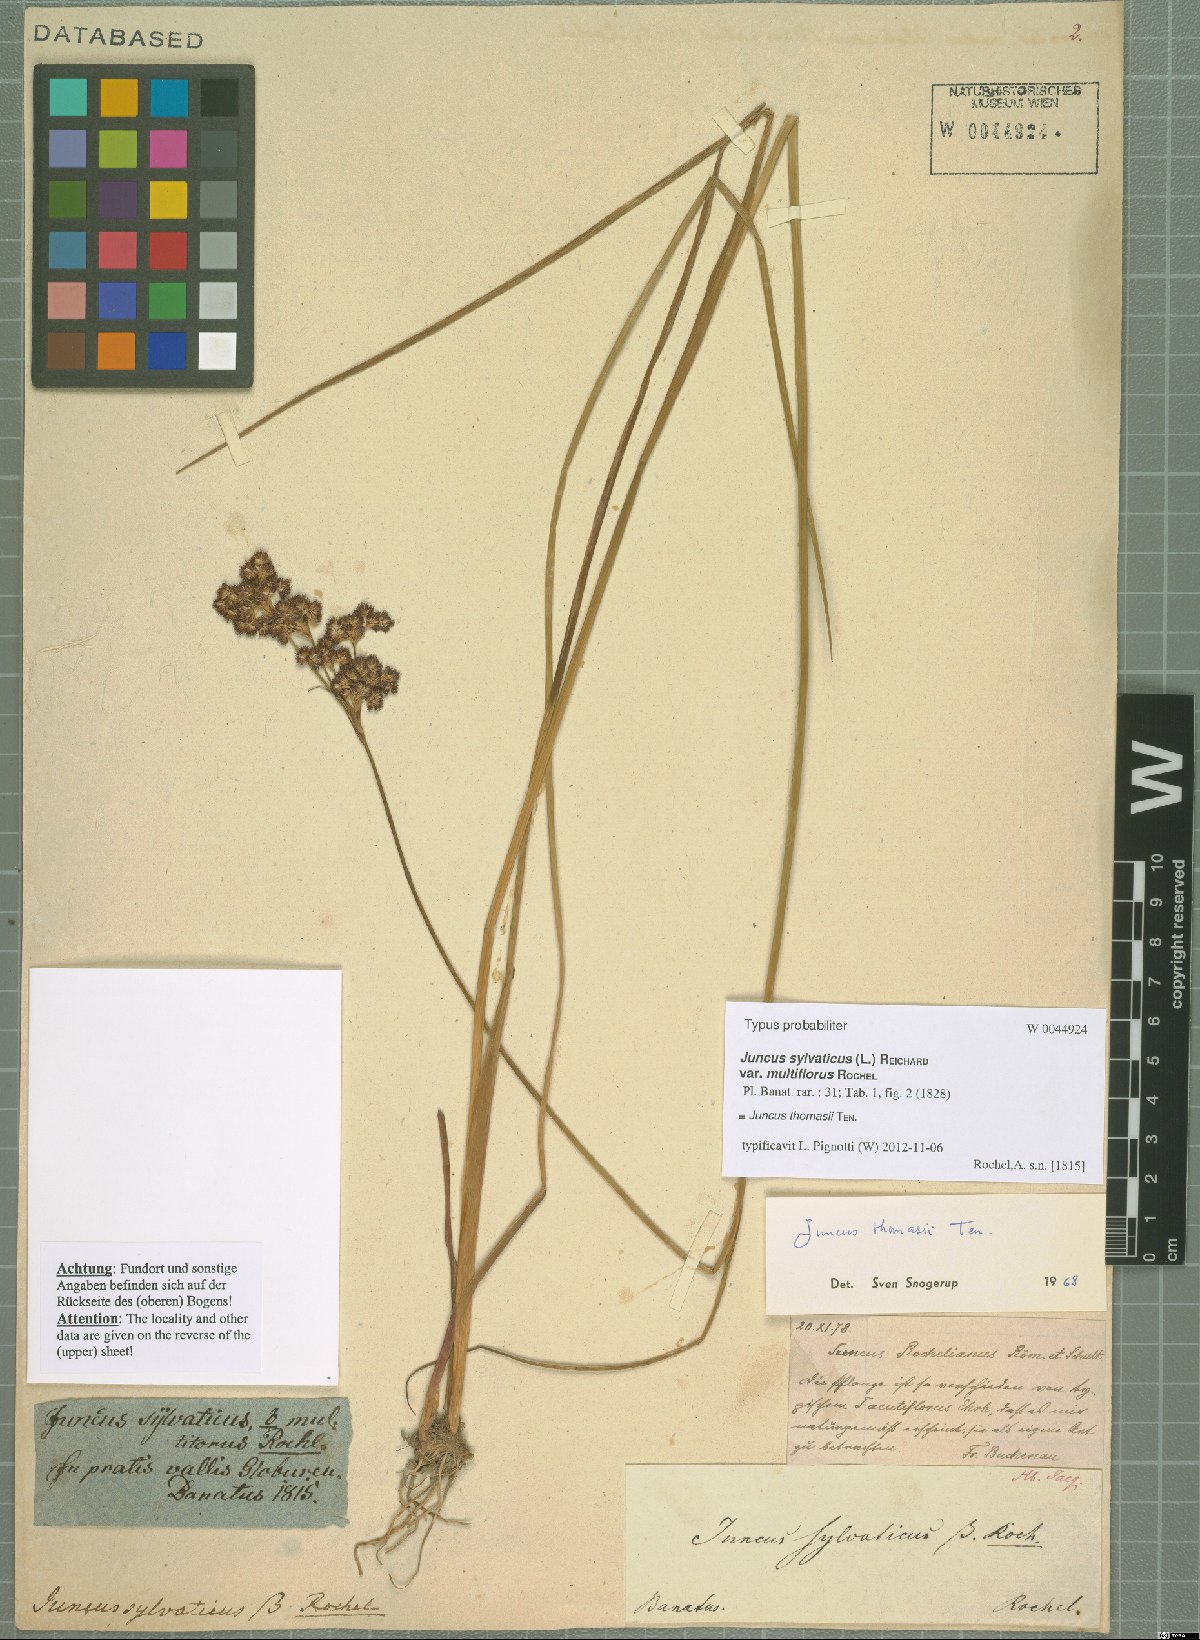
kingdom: Plantae
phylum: Tracheophyta
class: Liliopsida
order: Poales
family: Juncaceae
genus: Juncus
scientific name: Juncus thomasii
